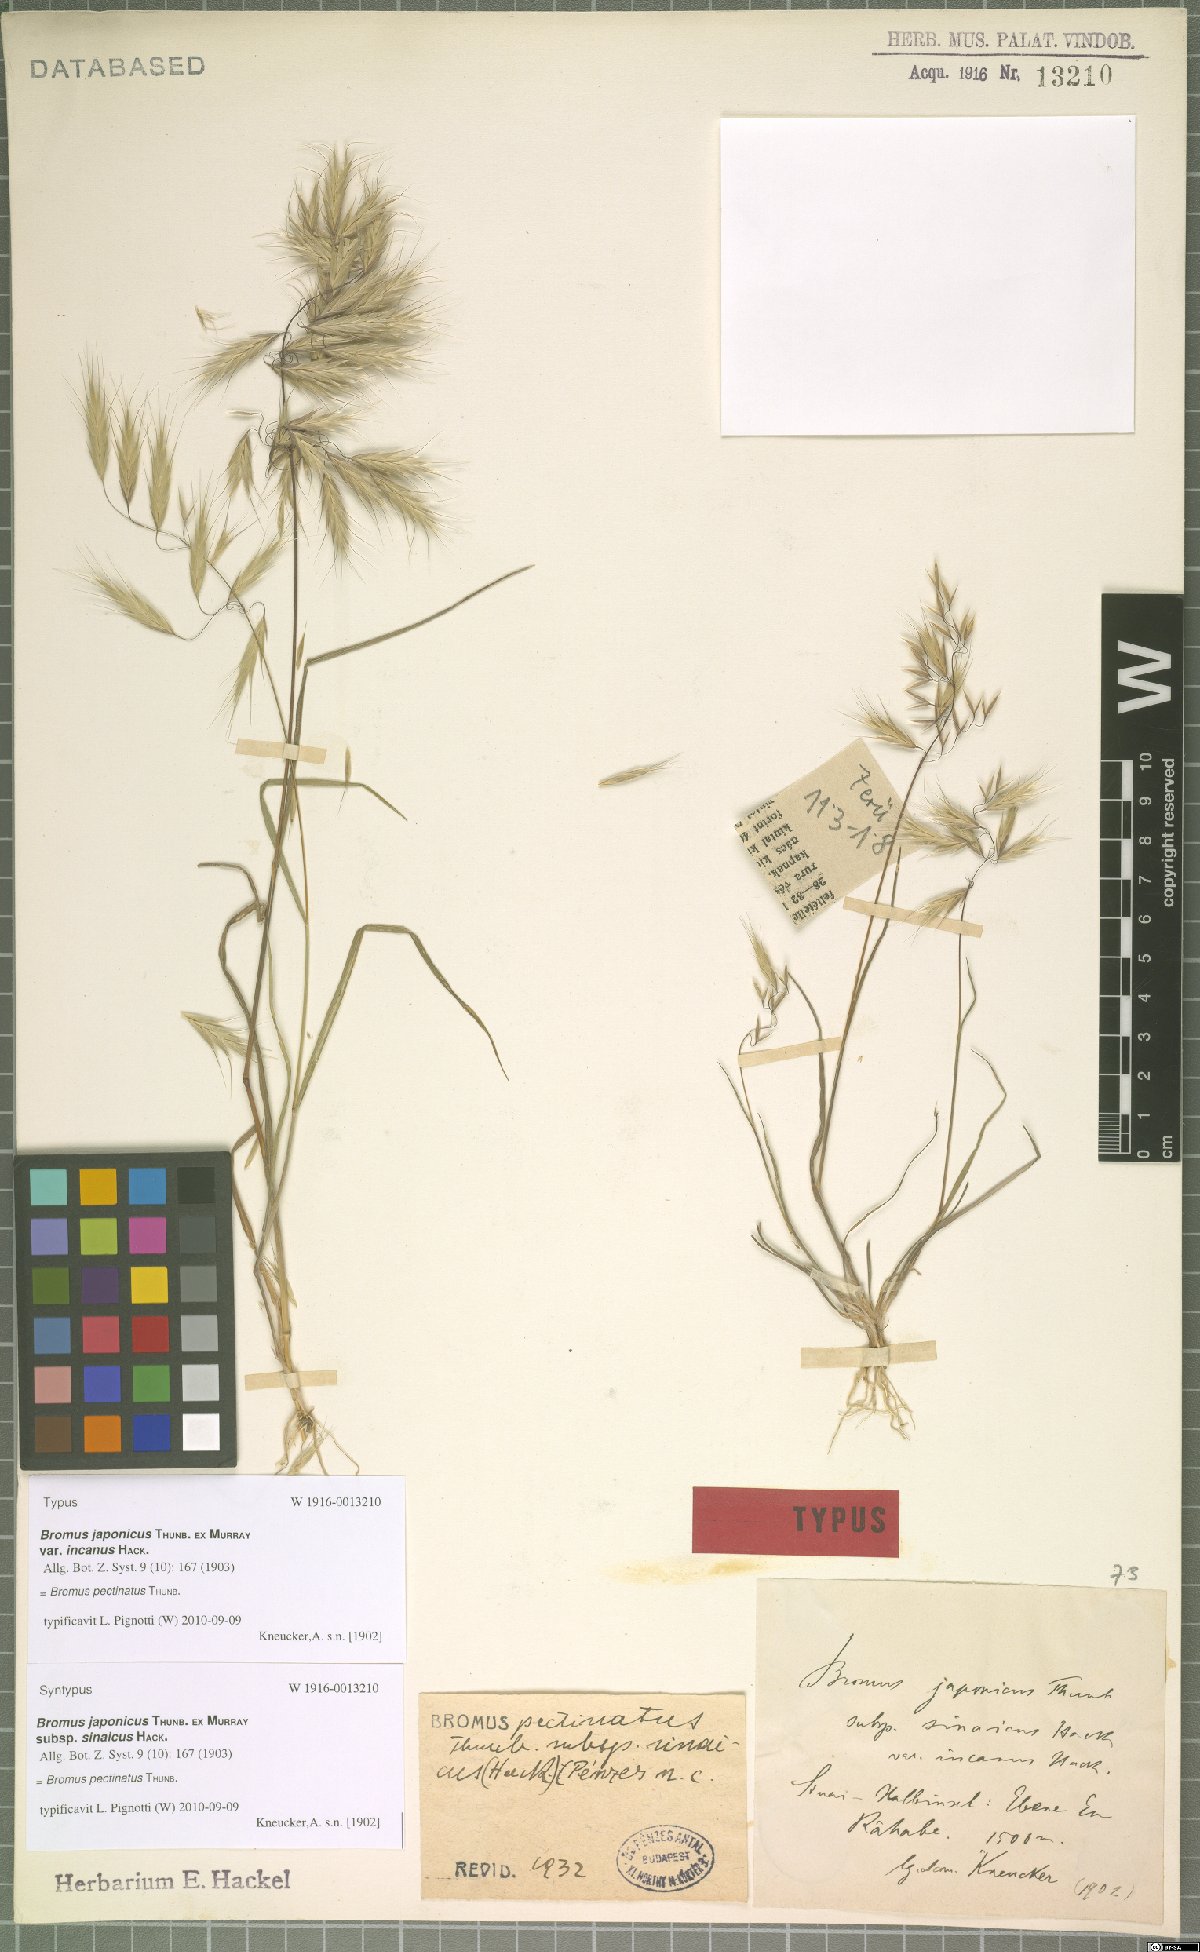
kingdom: Plantae
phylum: Tracheophyta
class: Liliopsida
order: Poales
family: Poaceae
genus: Bromus
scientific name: Bromus pectinatus
